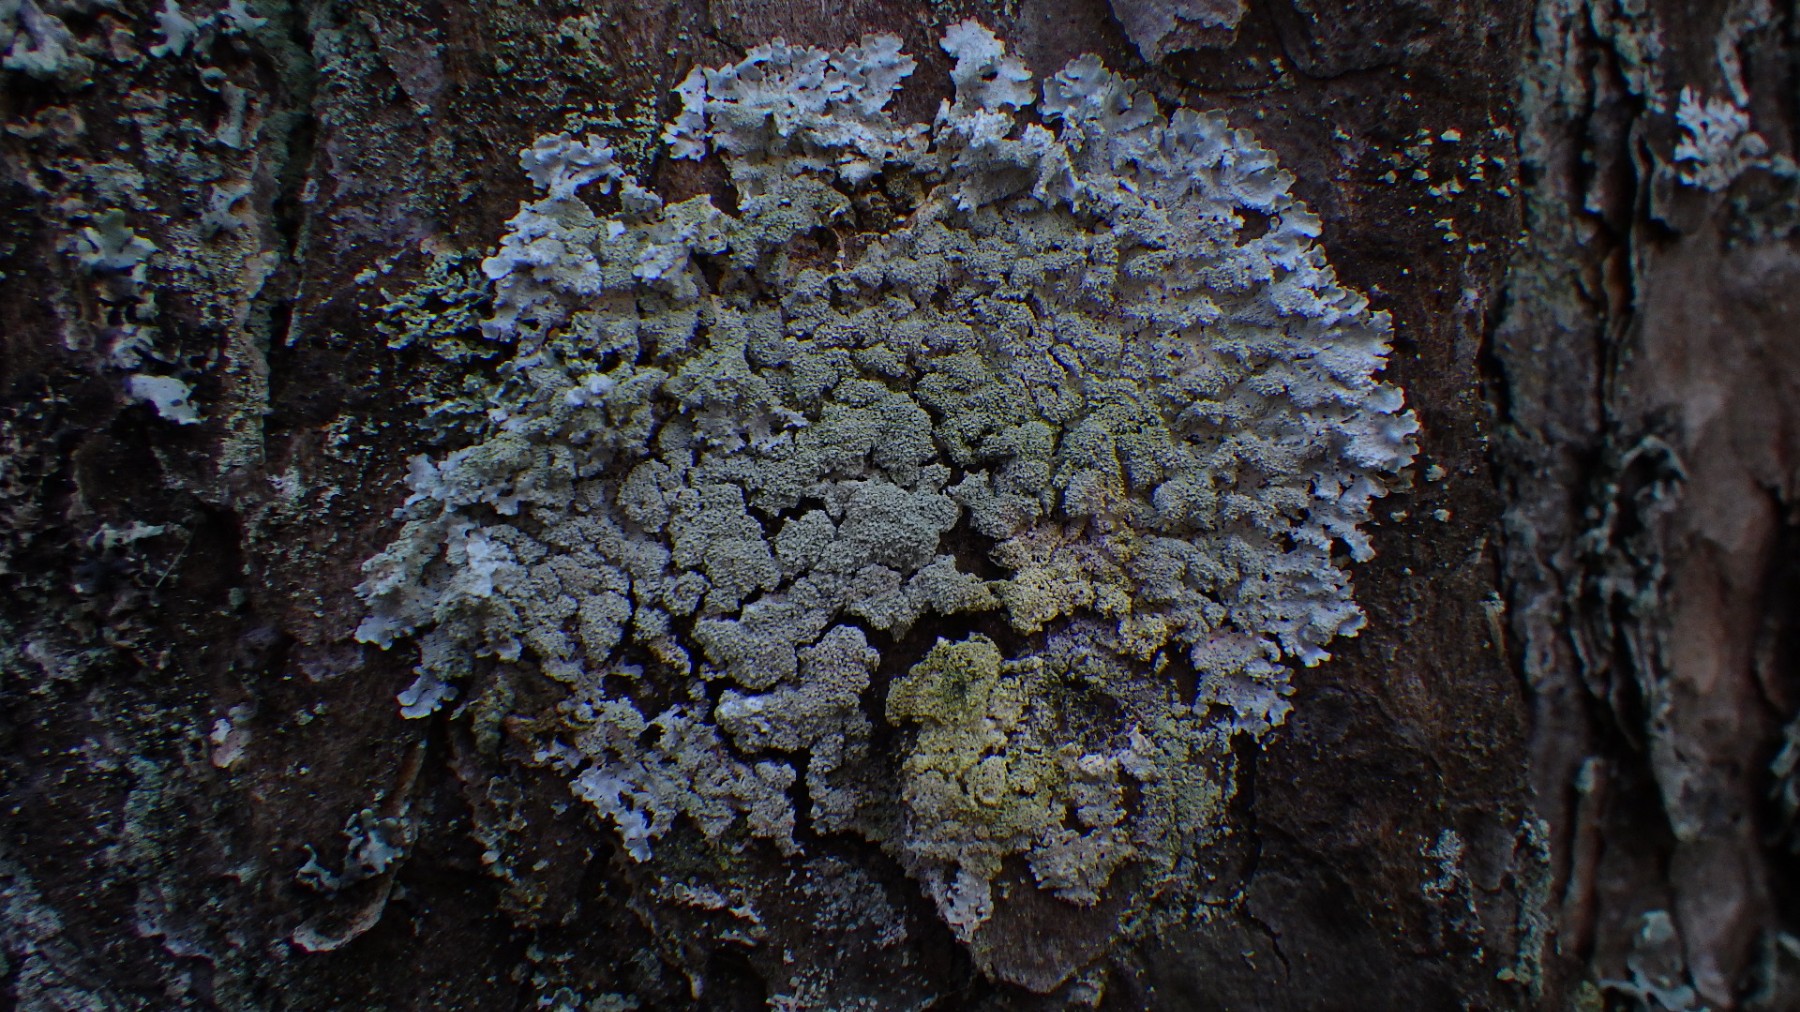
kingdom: Fungi
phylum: Ascomycota
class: Lecanoromycetes
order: Lecanorales
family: Parmeliaceae
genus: Imshaugia
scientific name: Imshaugia aleurites
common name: kliddet stolpelav
